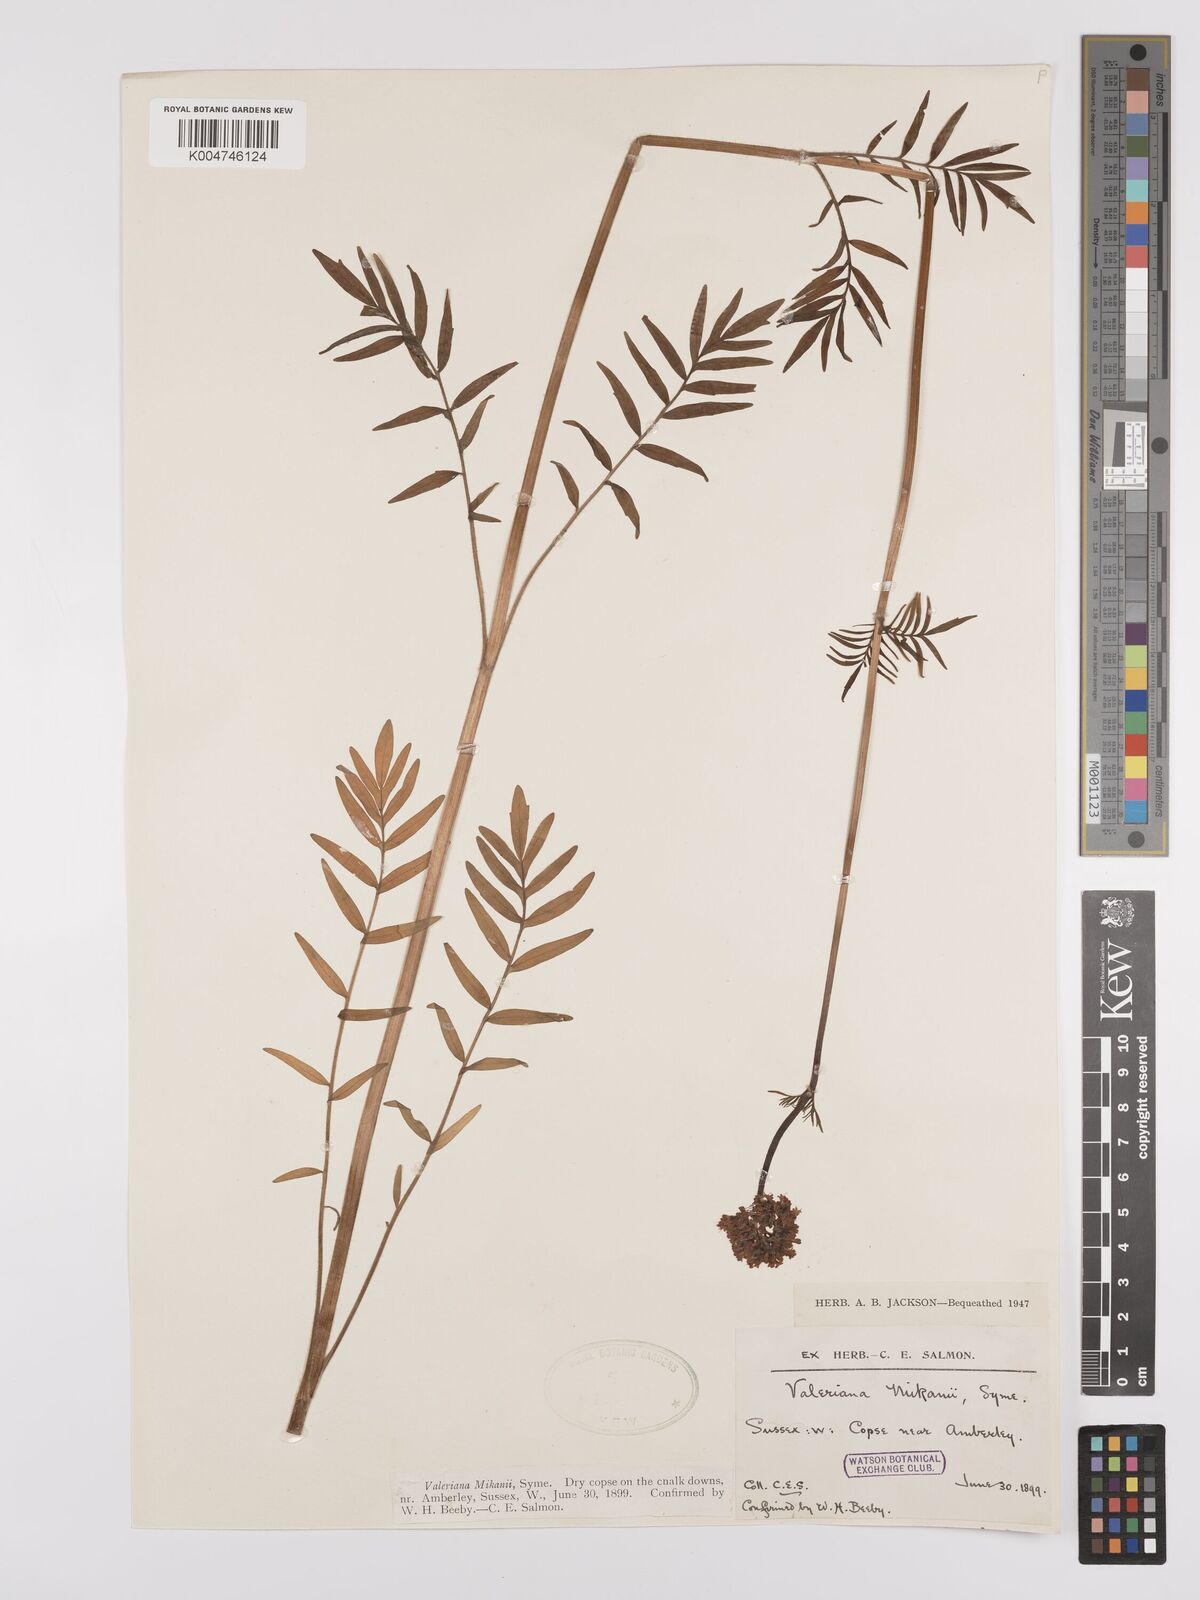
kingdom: Plantae
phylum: Tracheophyta
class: Magnoliopsida
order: Dipsacales
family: Caprifoliaceae
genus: Valeriana
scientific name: Valeriana excelsa
